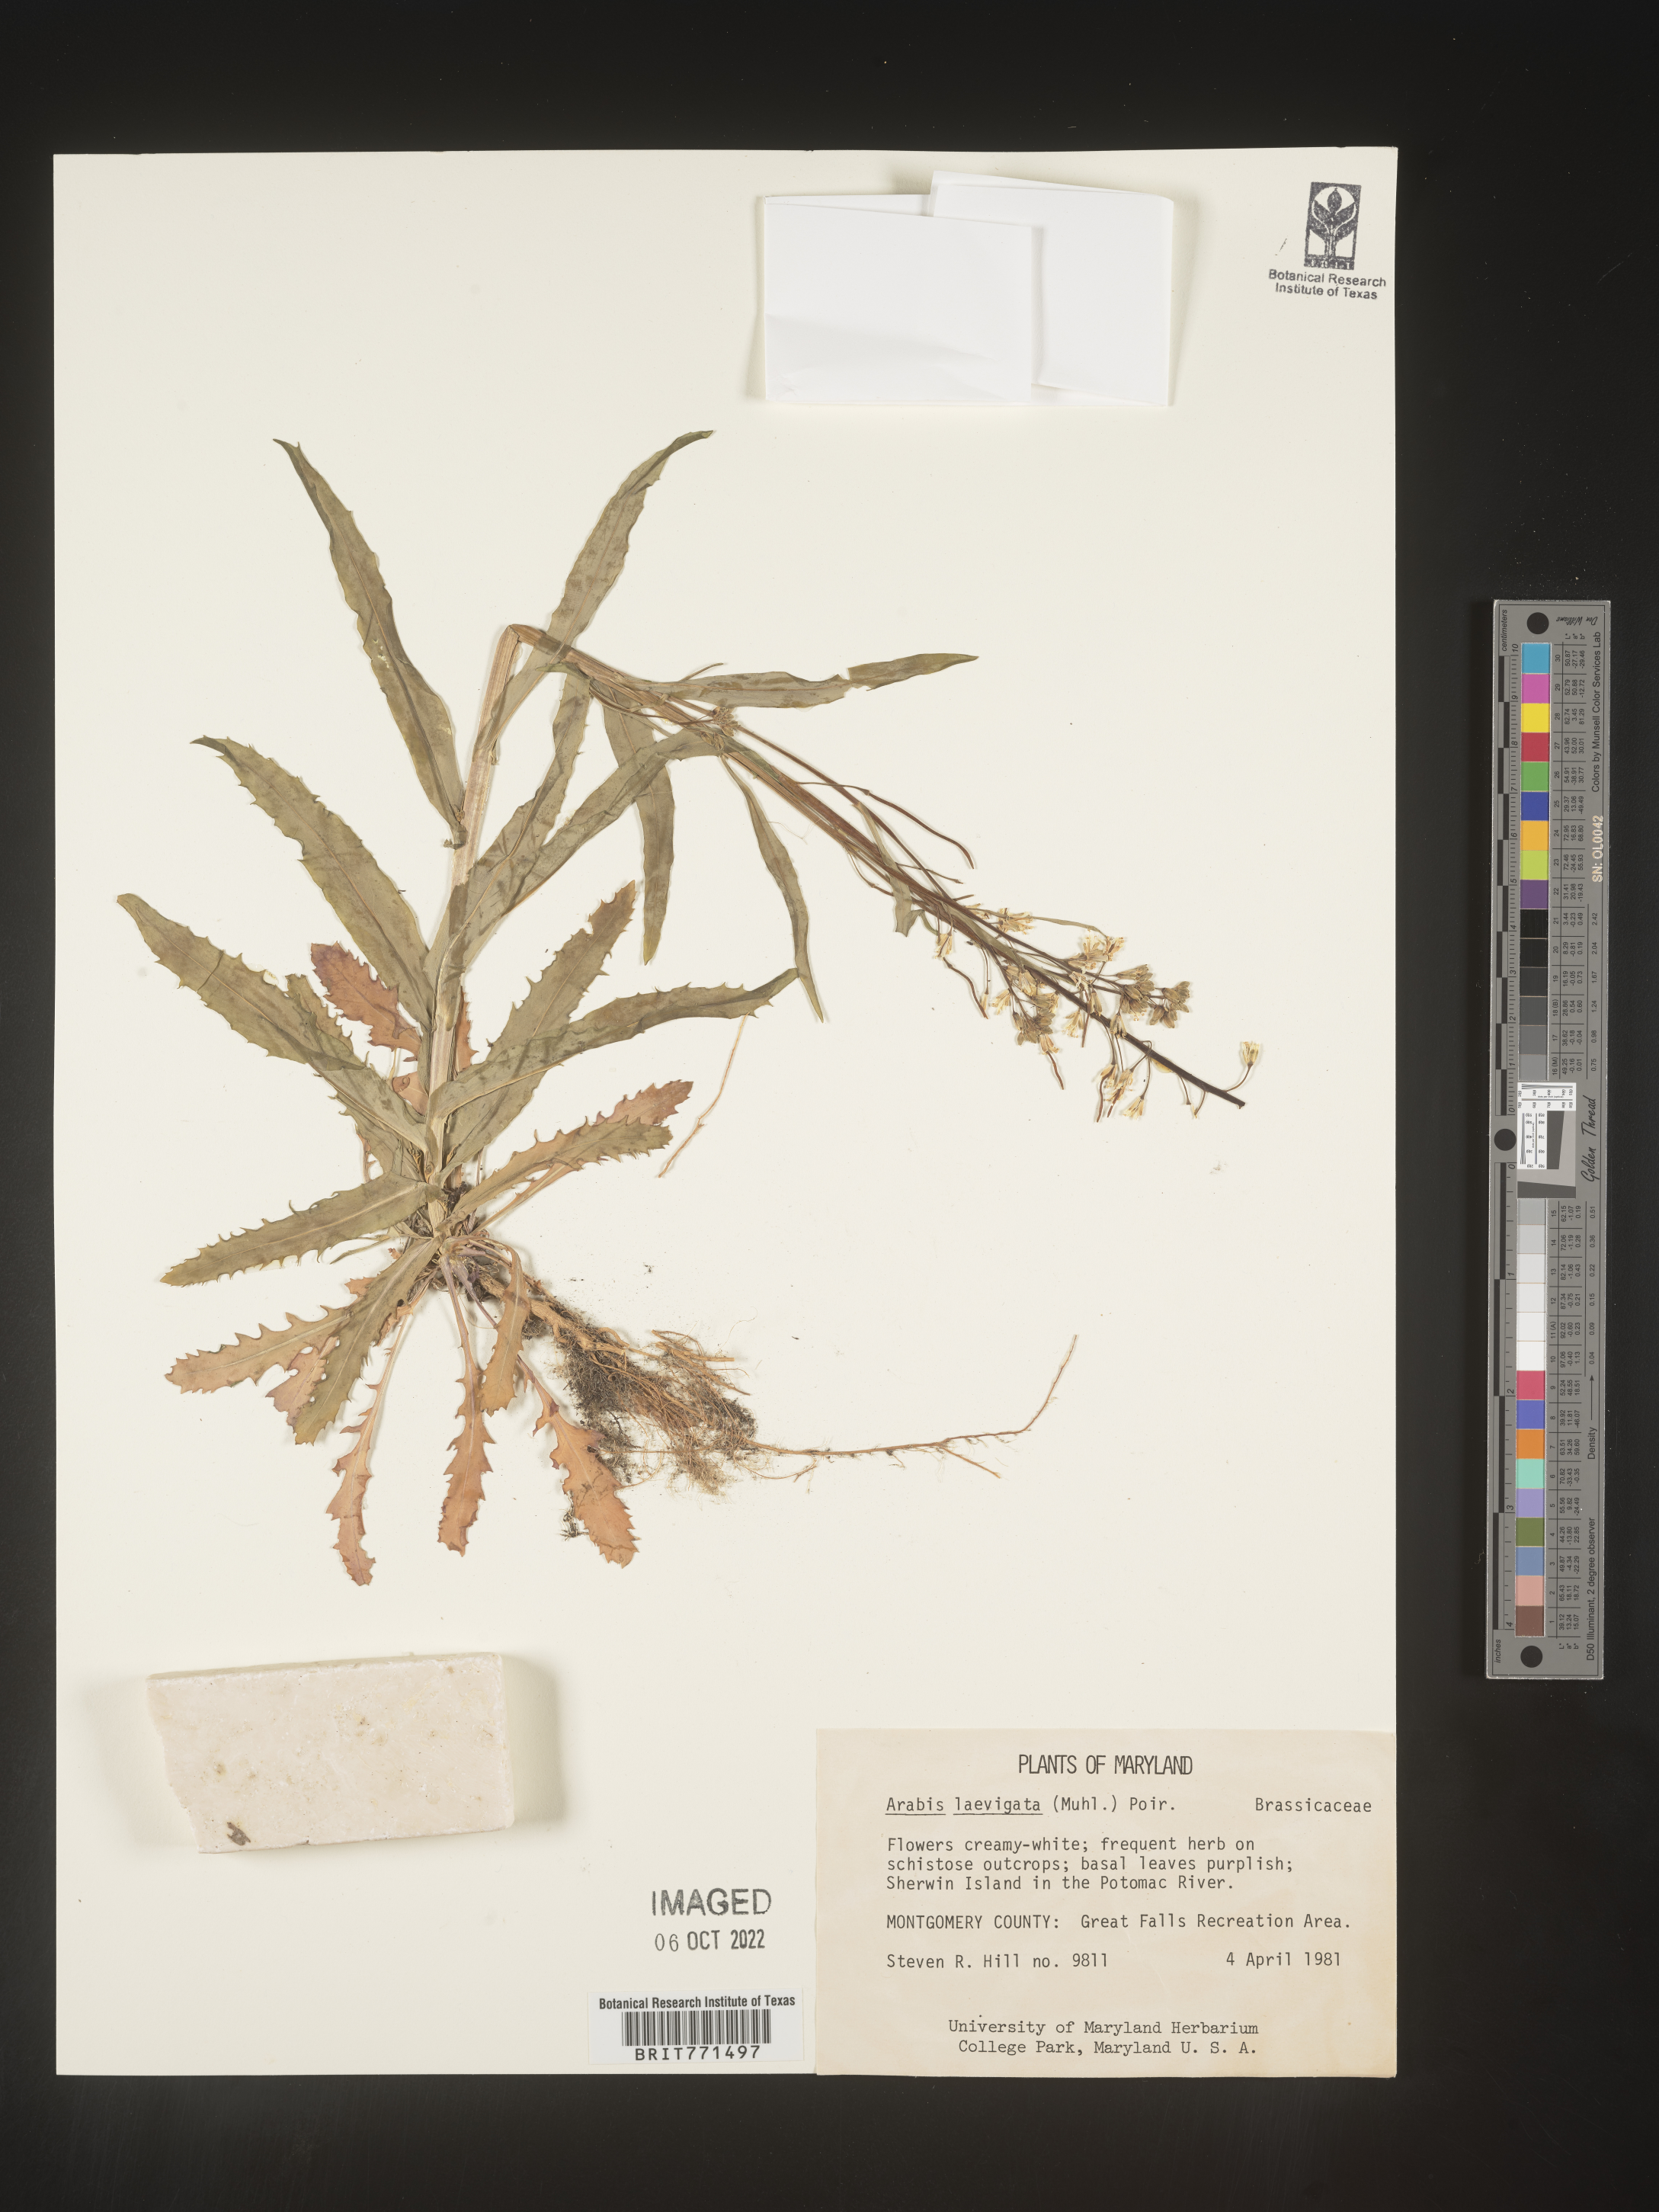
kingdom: Plantae
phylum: Tracheophyta
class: Magnoliopsida
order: Brassicales
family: Brassicaceae
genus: Arabis
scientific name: Arabis laevigata
